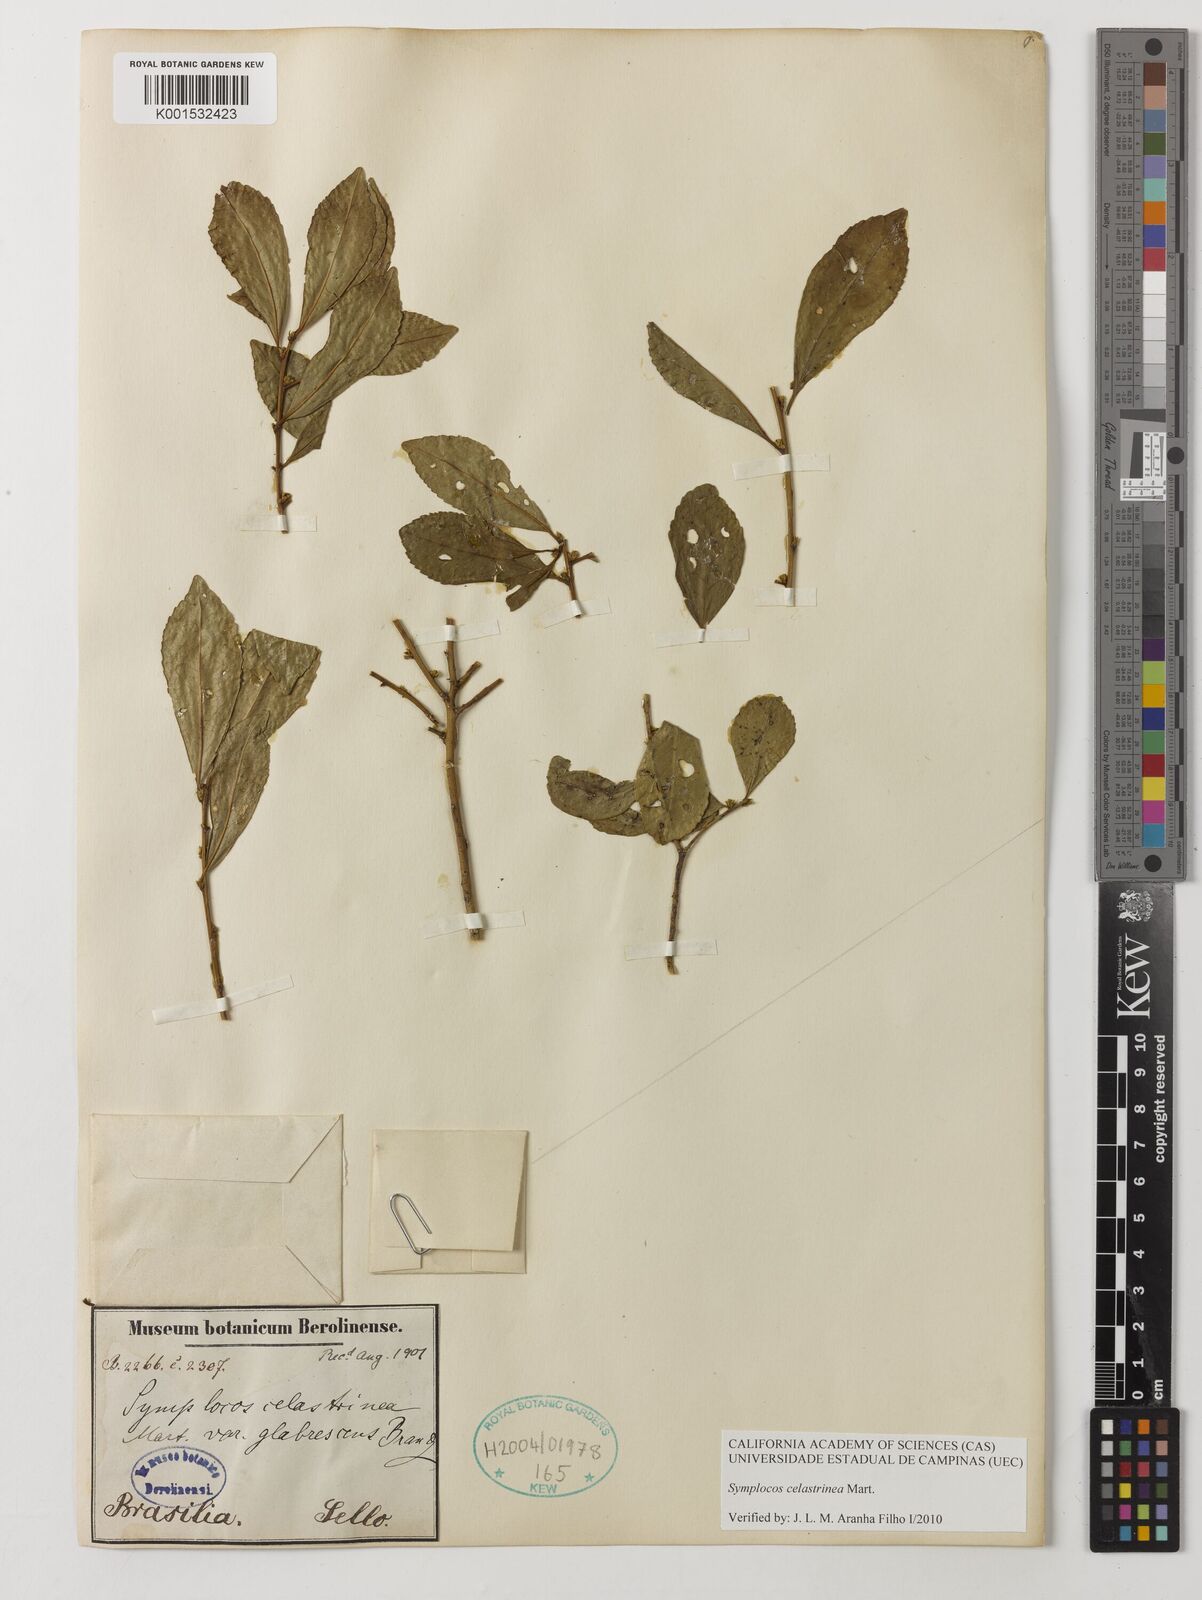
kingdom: Plantae
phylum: Tracheophyta
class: Magnoliopsida
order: Ericales
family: Symplocaceae
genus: Symplocos
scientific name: Symplocos celastrinea
